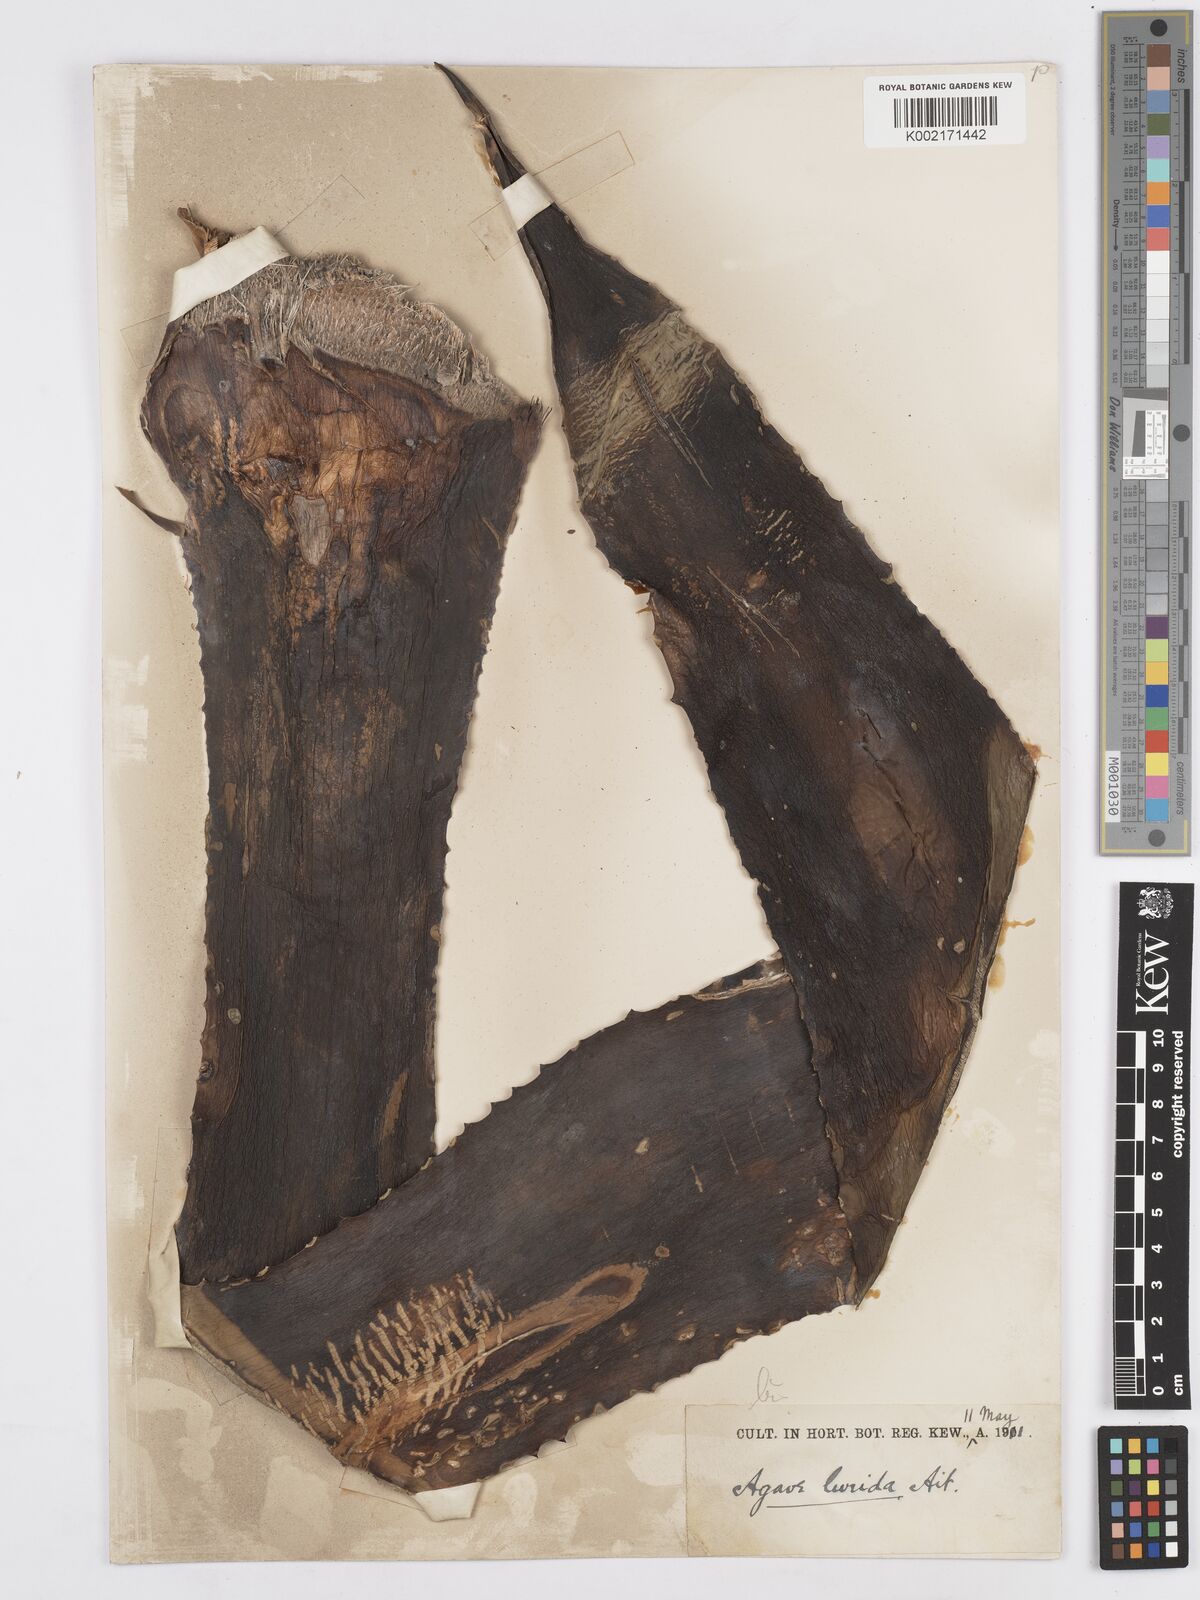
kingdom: Plantae
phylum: Tracheophyta
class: Liliopsida
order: Asparagales
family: Asparagaceae
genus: Agave
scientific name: Agave vera-cruz
